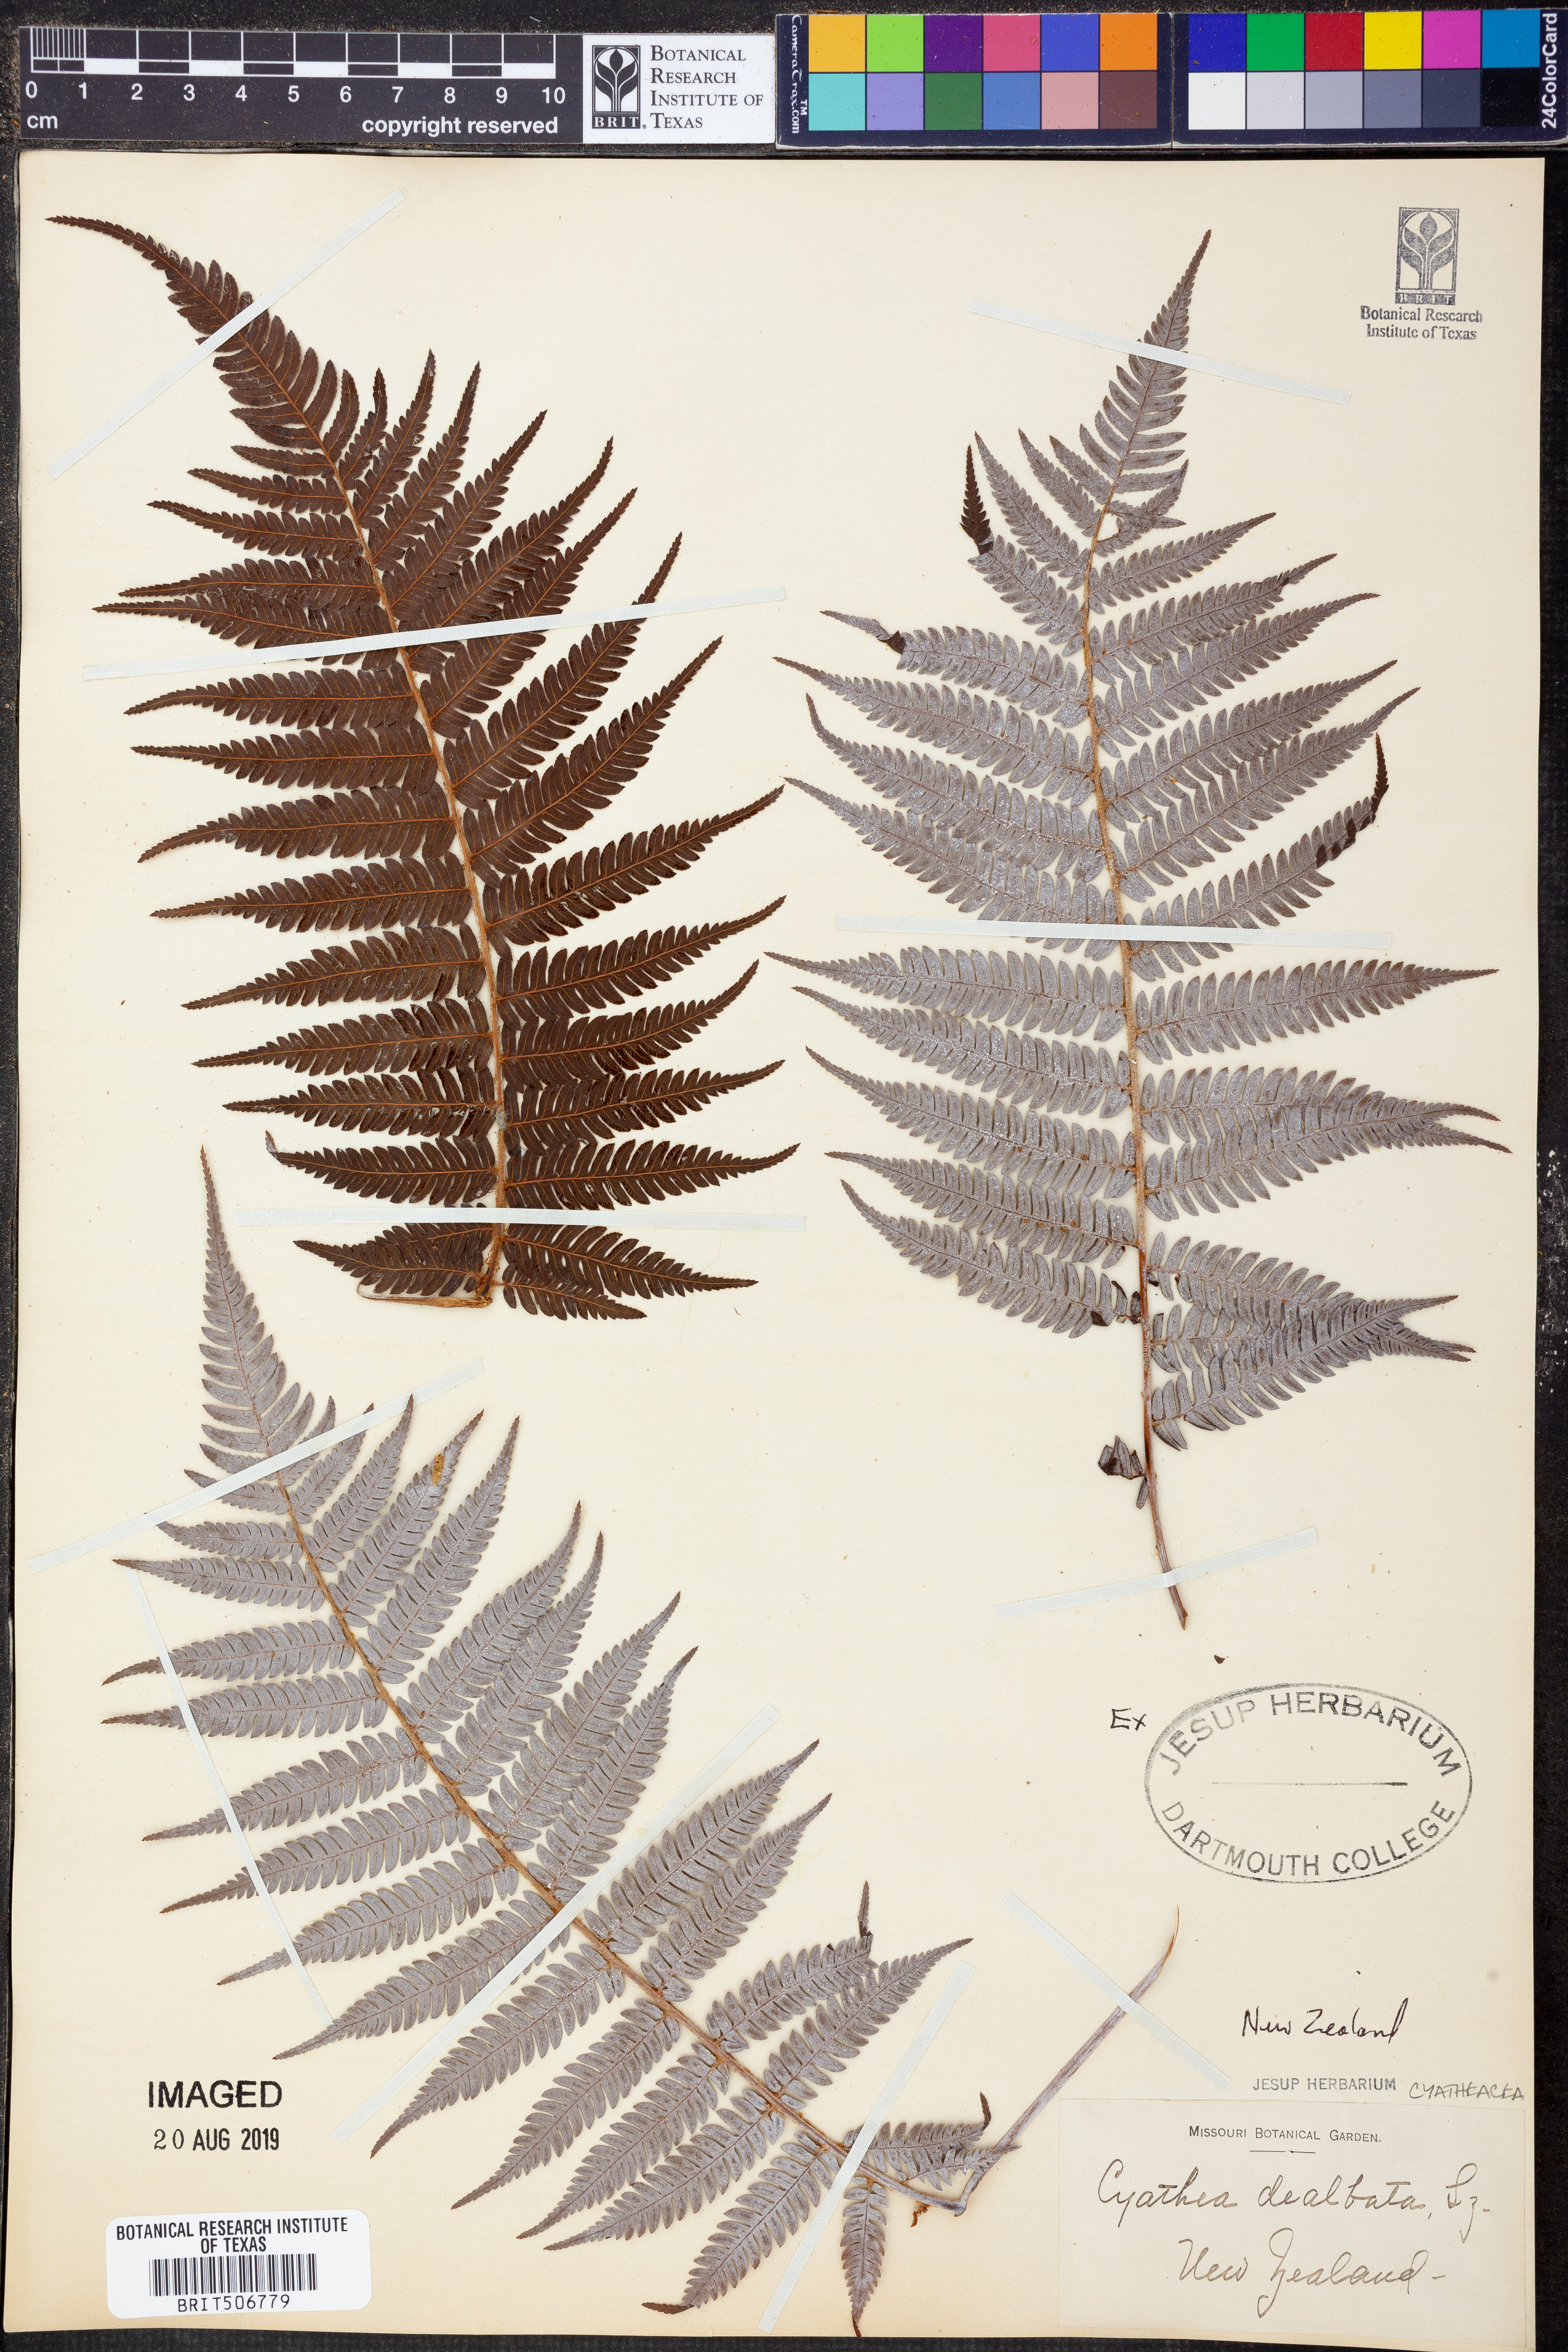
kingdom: Plantae
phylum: Tracheophyta
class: Polypodiopsida
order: Cyatheales
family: Cyatheaceae
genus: Alsophila
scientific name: Alsophila dealbata
